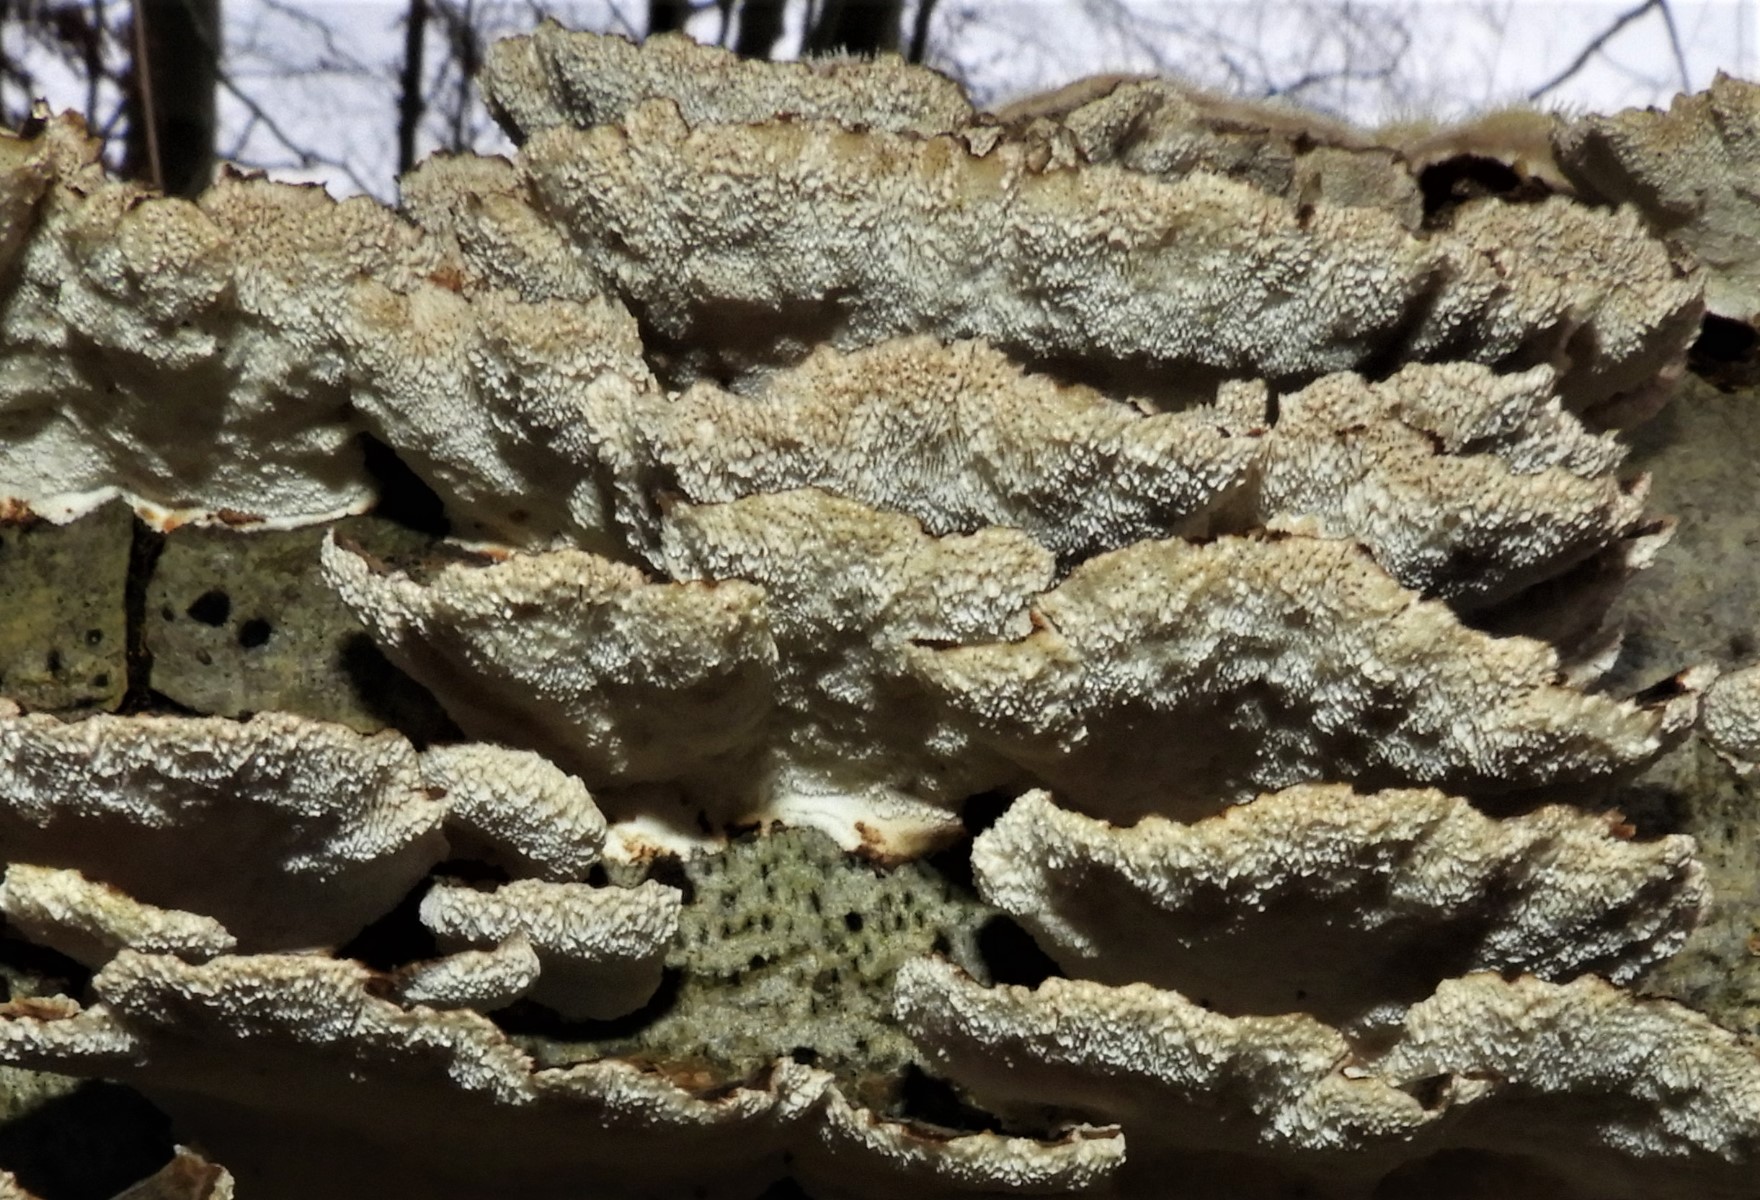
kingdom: Fungi
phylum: Basidiomycota
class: Agaricomycetes
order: Polyporales
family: Polyporaceae
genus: Trametes
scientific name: Trametes versicolor
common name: broget læderporesvamp
